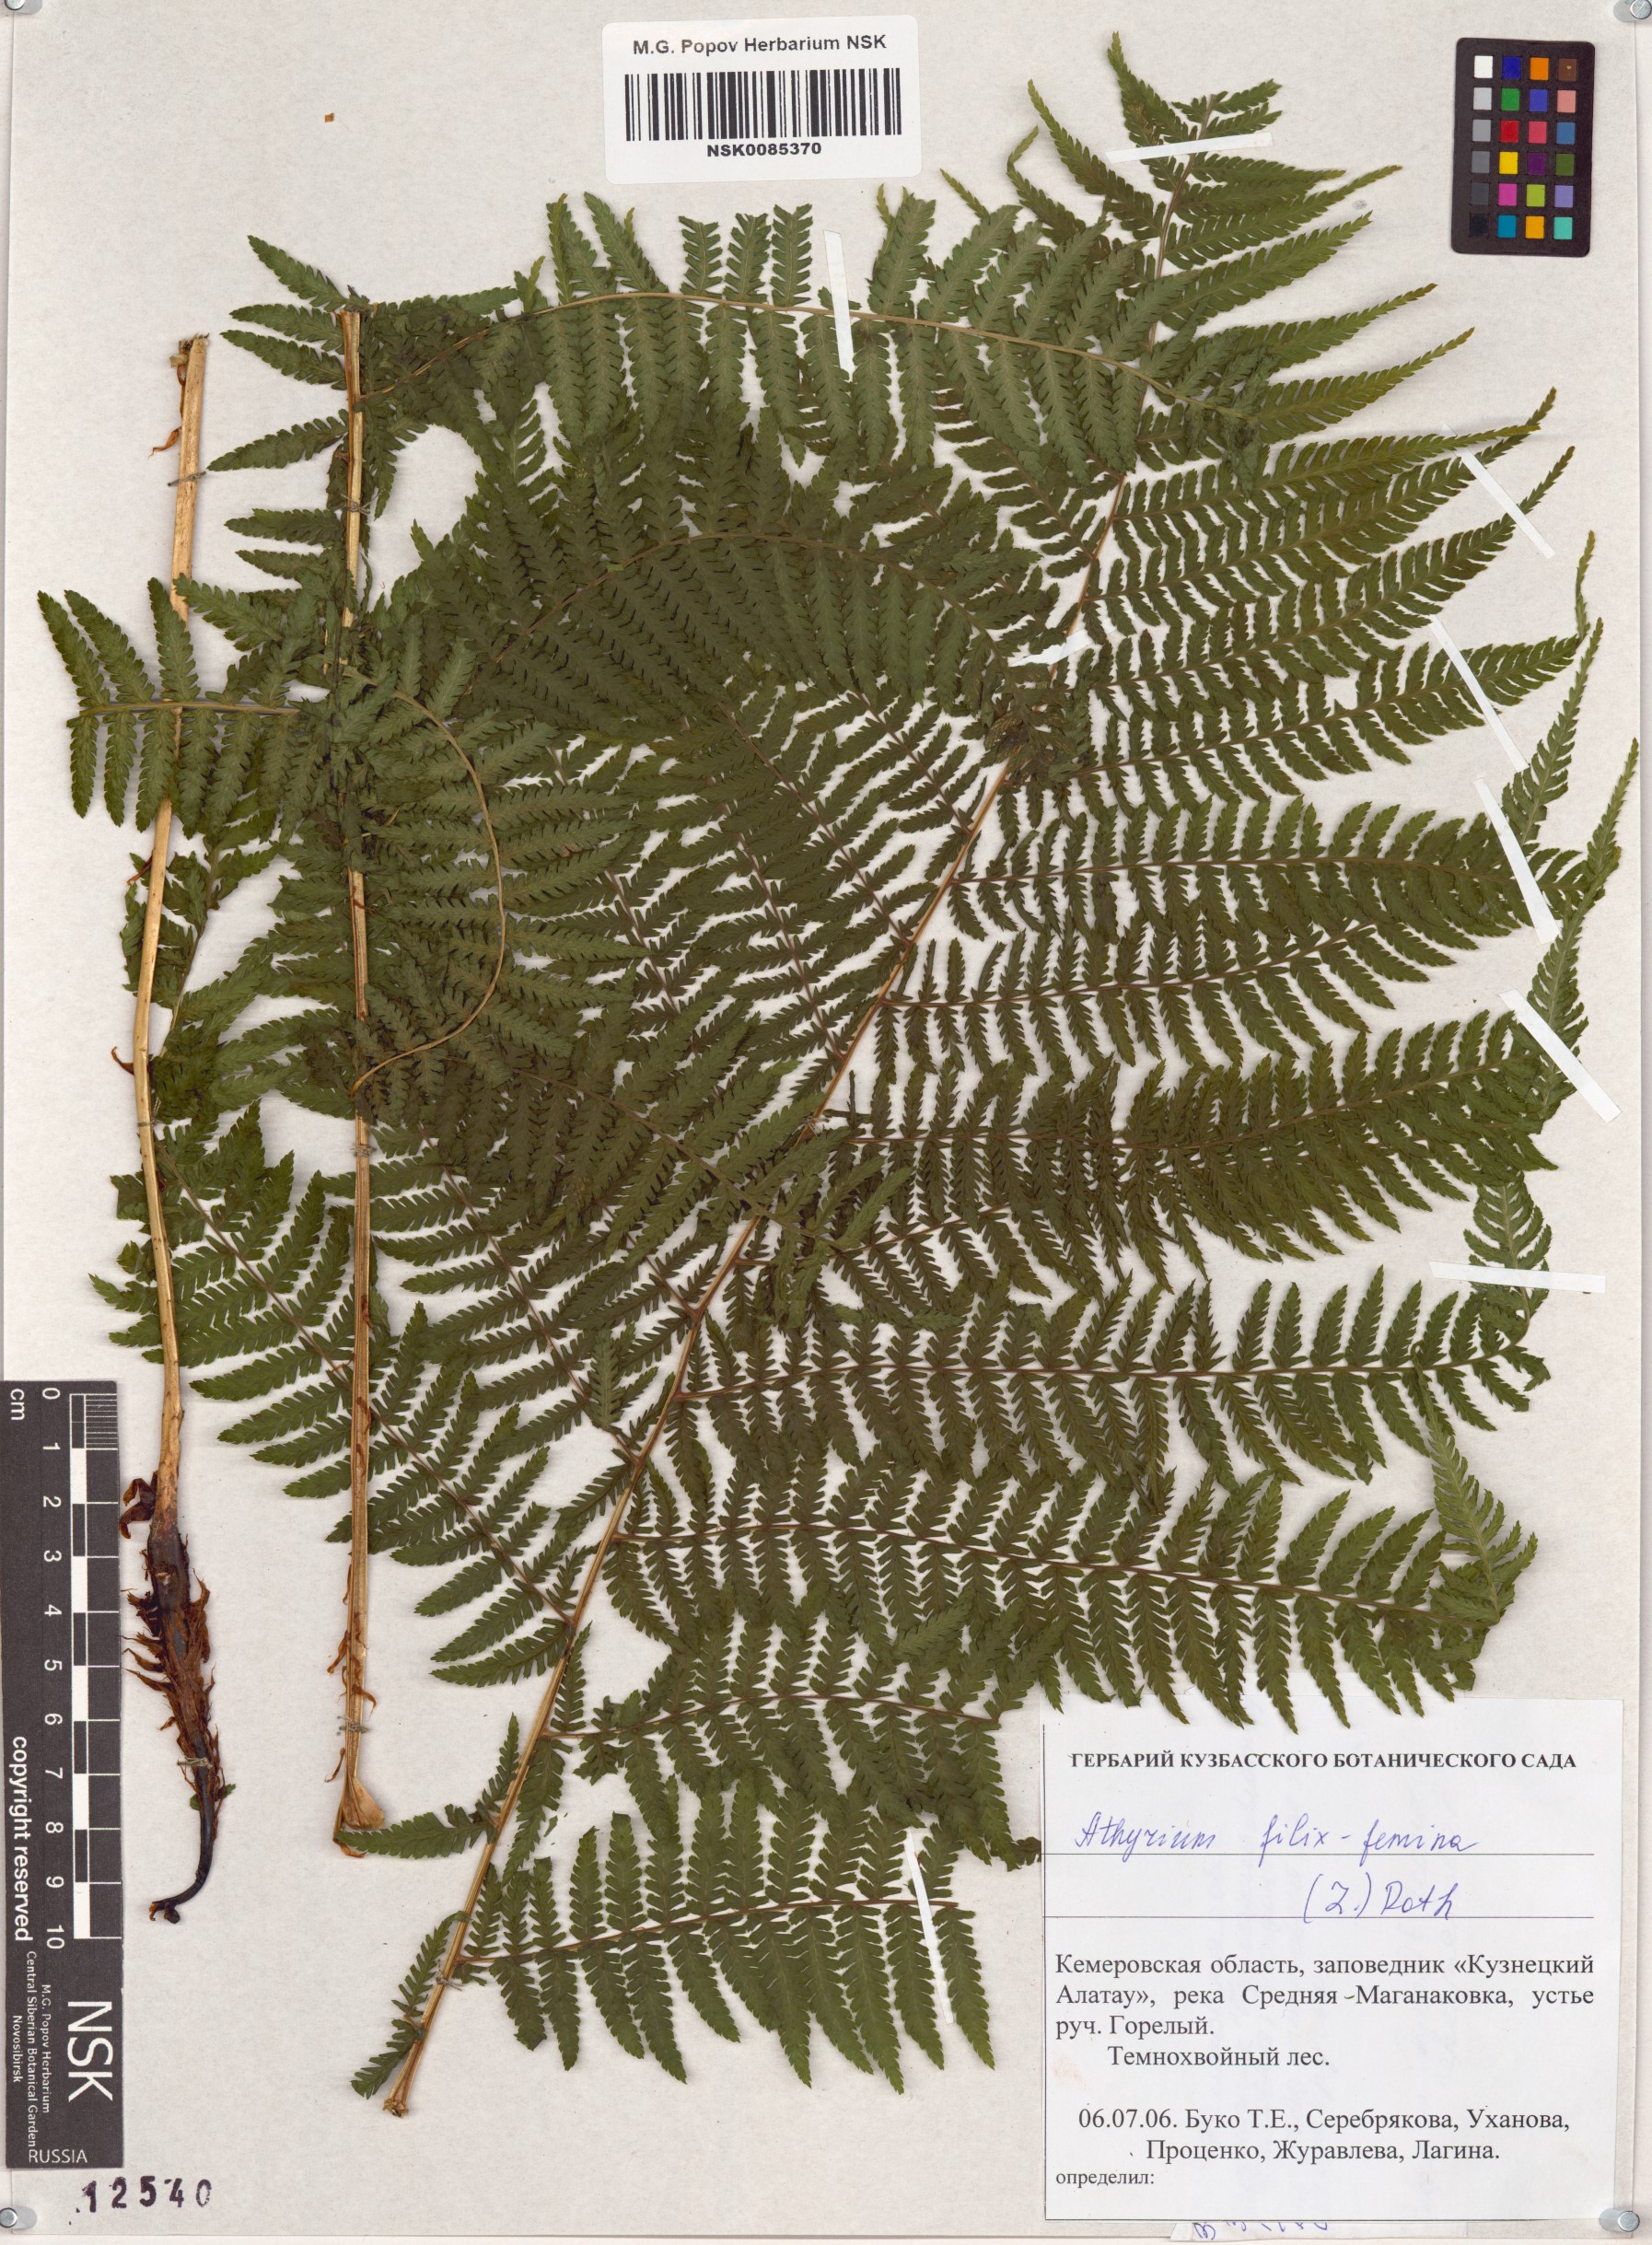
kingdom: Plantae
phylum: Tracheophyta
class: Polypodiopsida
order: Polypodiales
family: Athyriaceae
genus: Athyrium
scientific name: Athyrium filix-femina
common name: Lady fern
